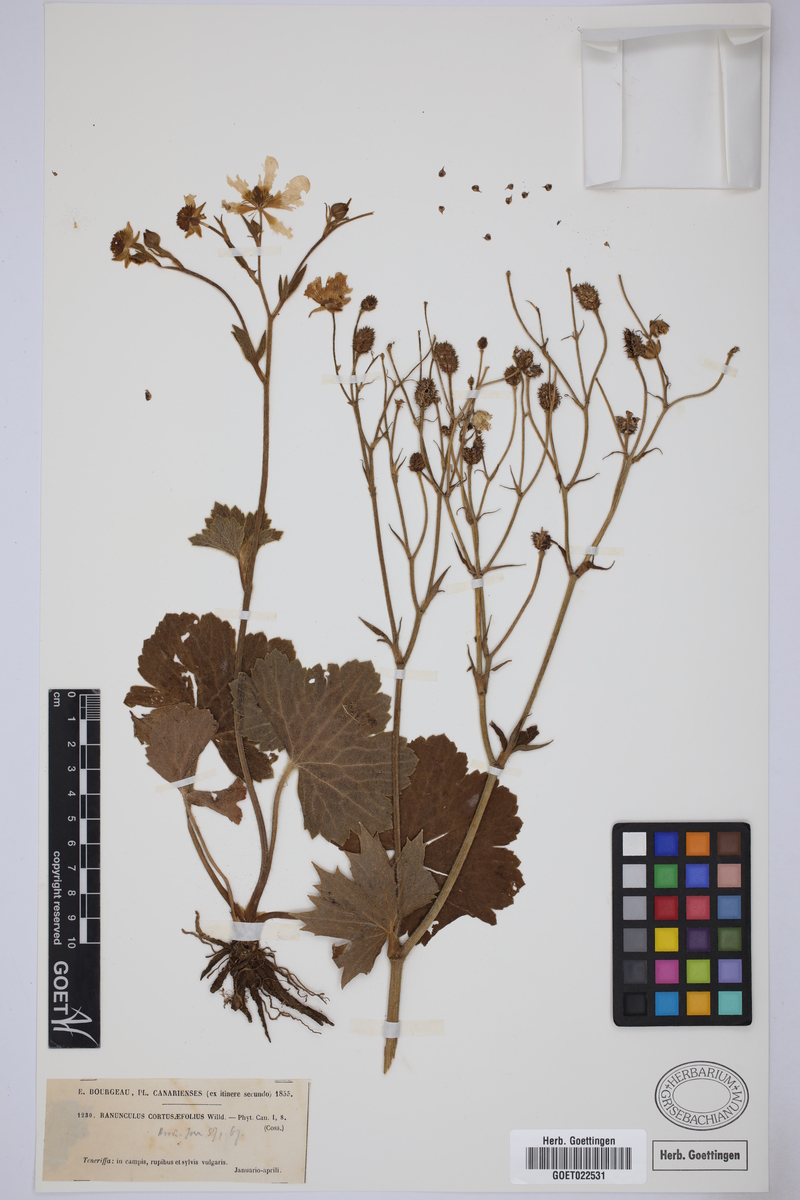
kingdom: Plantae
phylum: Tracheophyta
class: Magnoliopsida
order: Ranunculales
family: Ranunculaceae
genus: Ranunculus
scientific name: Ranunculus cortusifolius
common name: Azores buttercup
